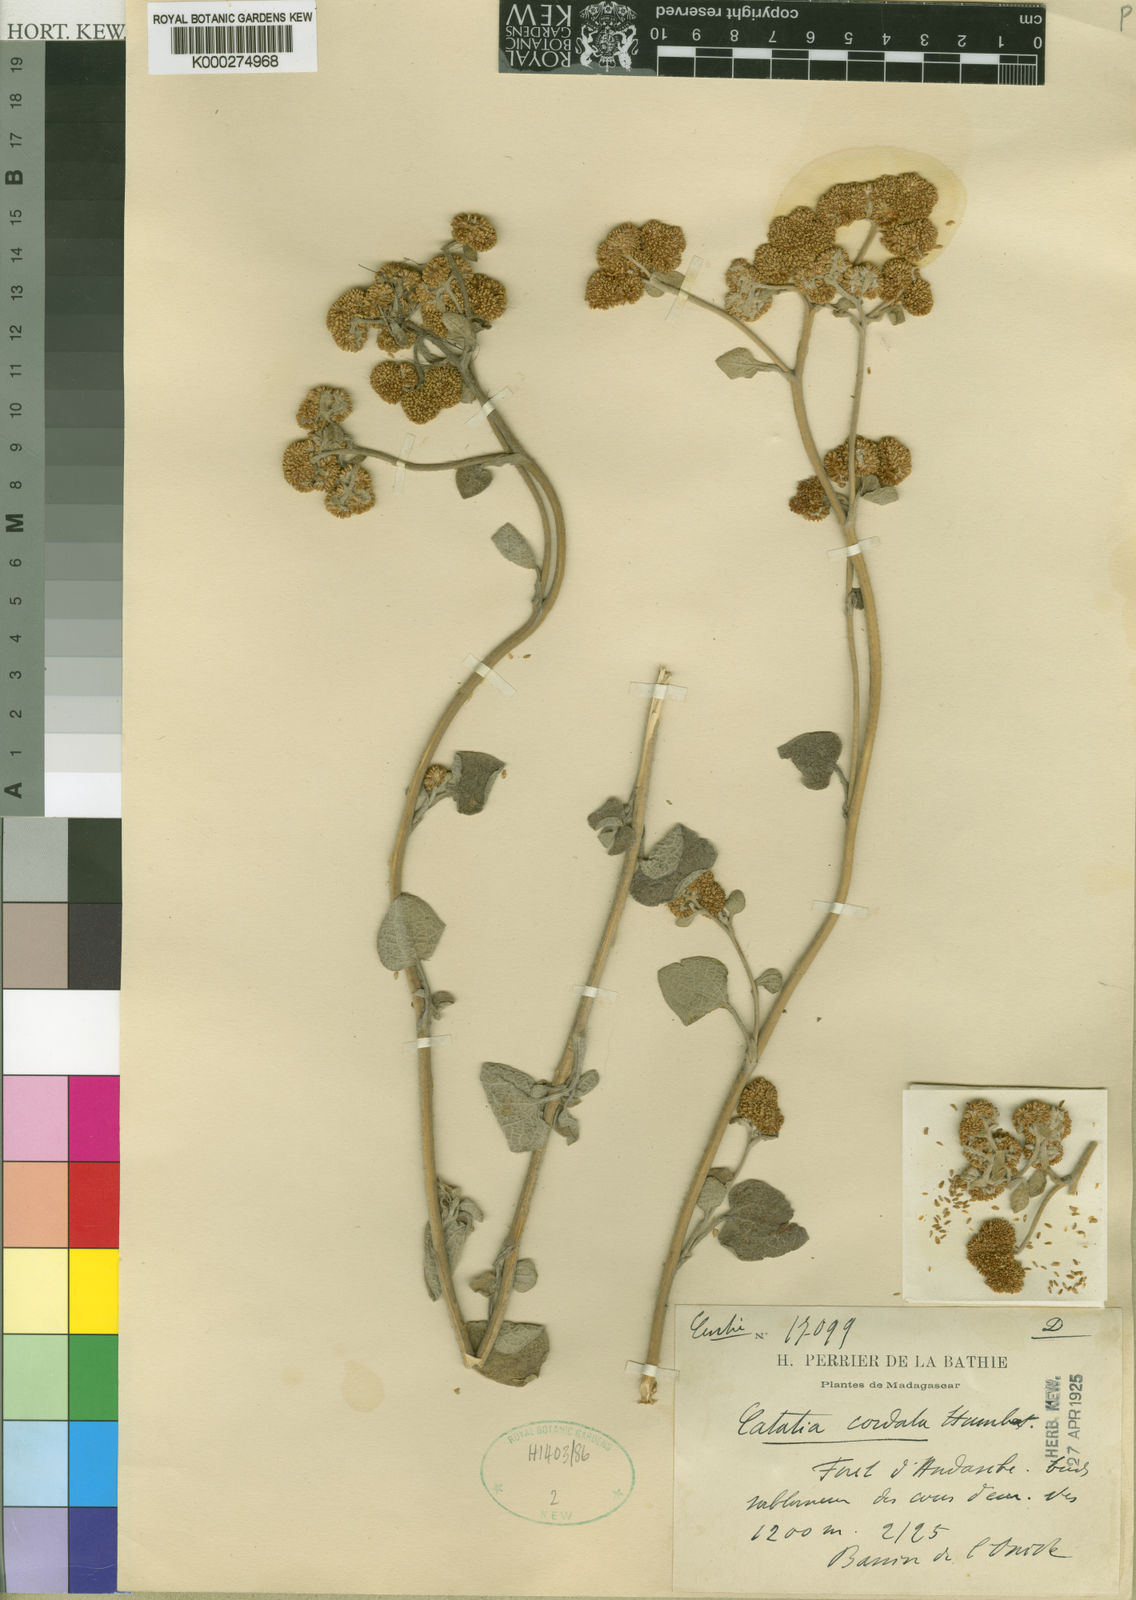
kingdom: Plantae
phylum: Tracheophyta
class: Magnoliopsida
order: Asterales
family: Asteraceae
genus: Catatia
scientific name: Catatia cordata
